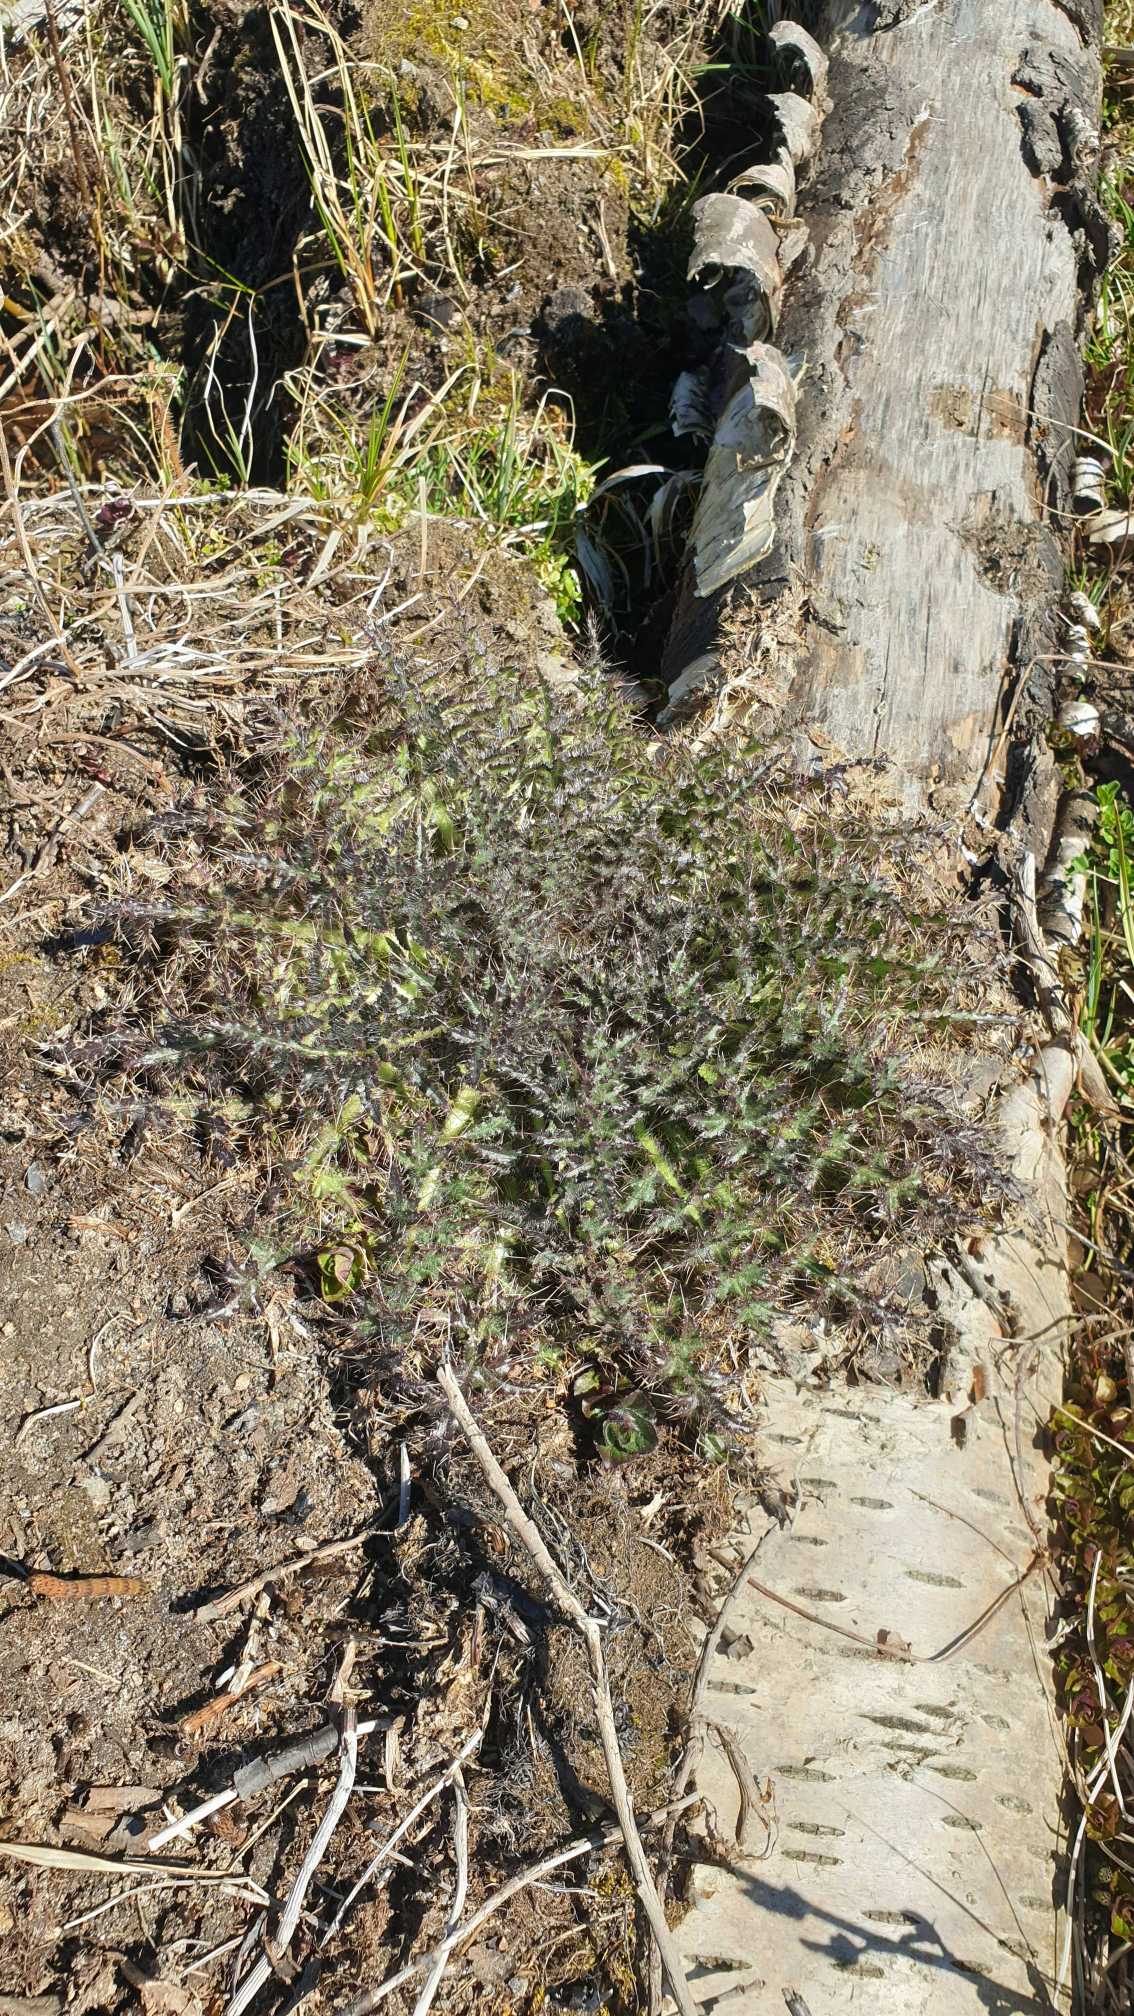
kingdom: Plantae
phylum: Tracheophyta
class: Magnoliopsida
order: Asterales
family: Asteraceae
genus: Cirsium
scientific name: Cirsium palustre
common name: Kær-tidsel
